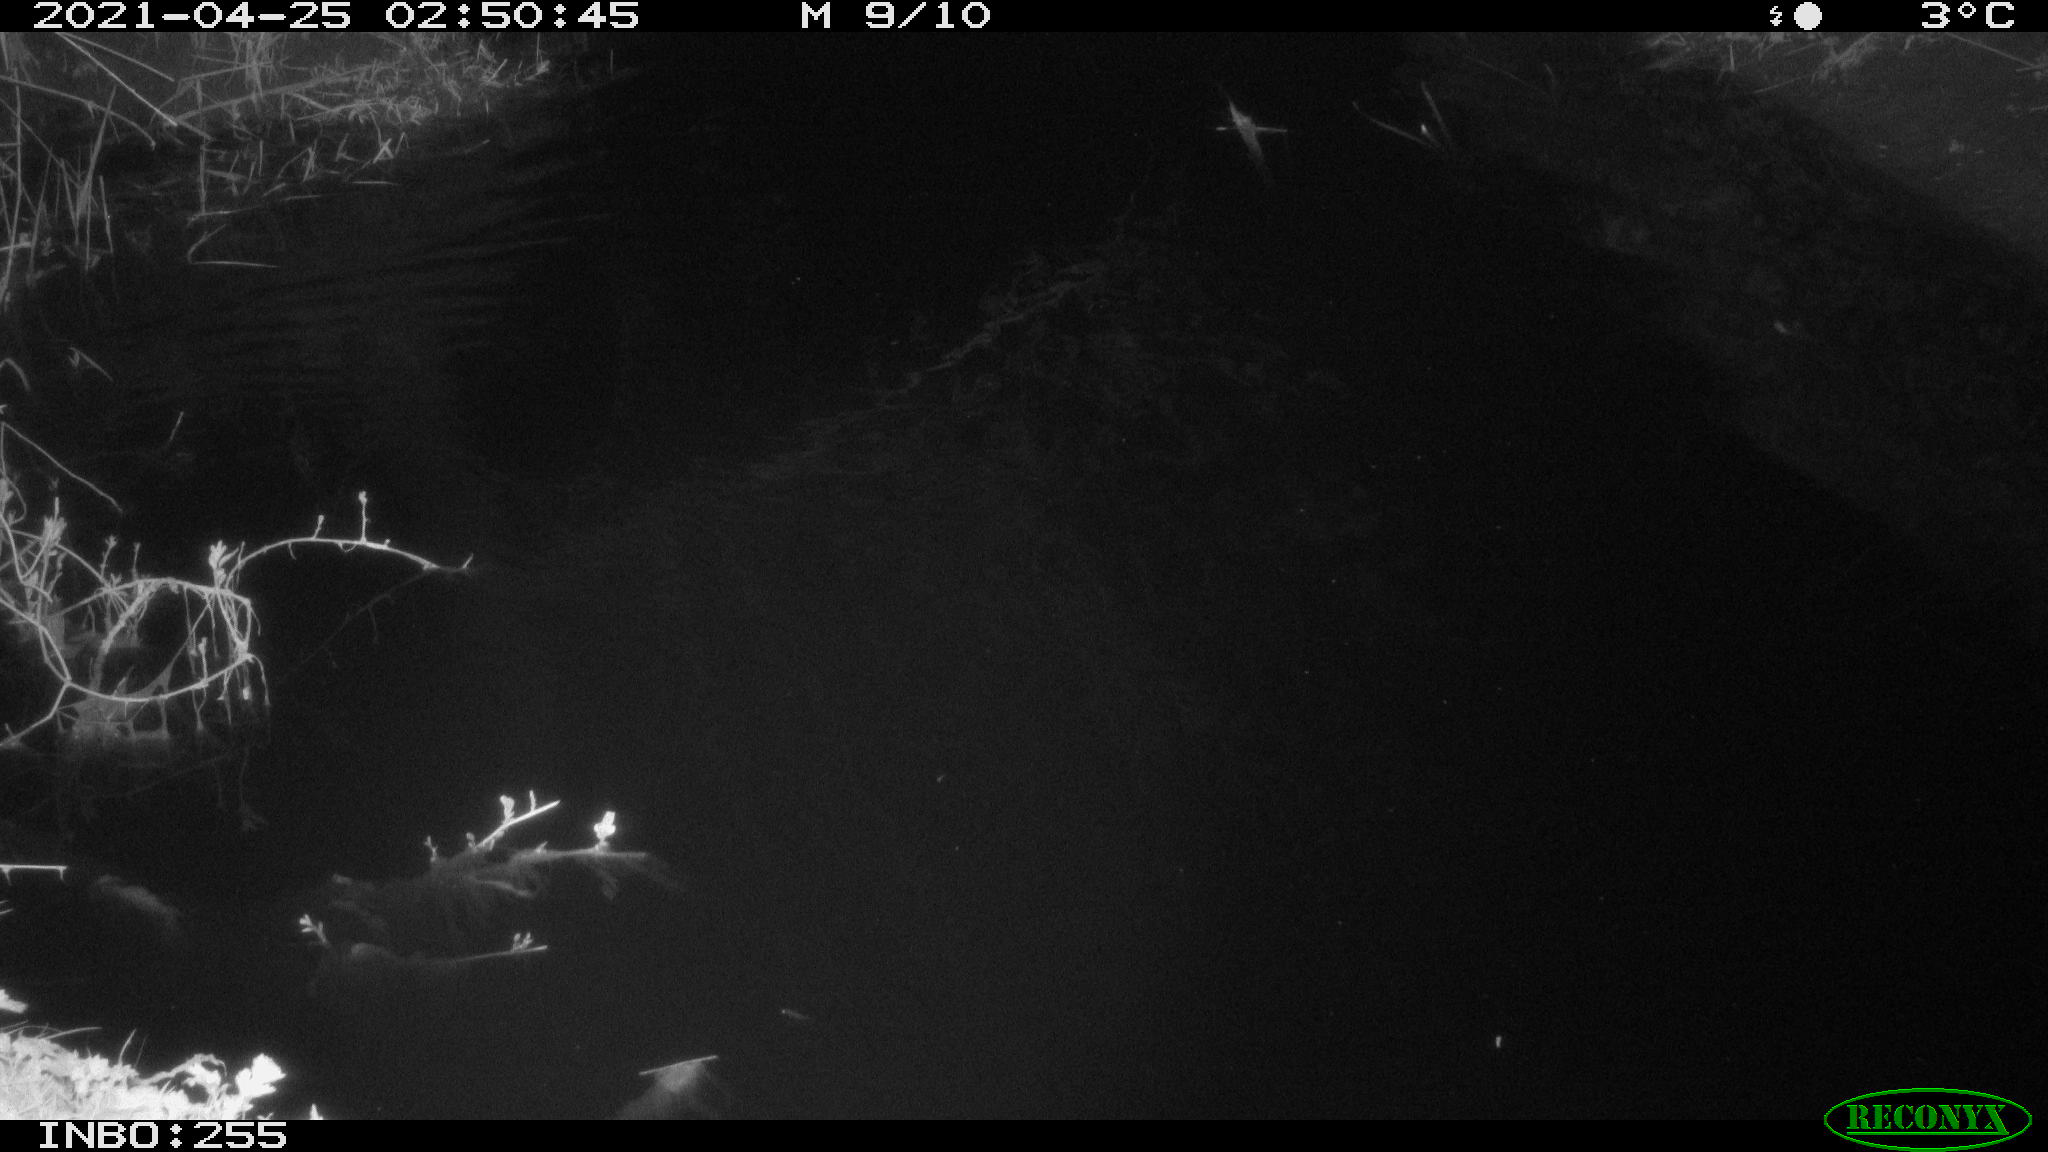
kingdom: Animalia
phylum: Chordata
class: Aves
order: Anseriformes
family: Anatidae
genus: Anas
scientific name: Anas platyrhynchos
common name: Mallard
